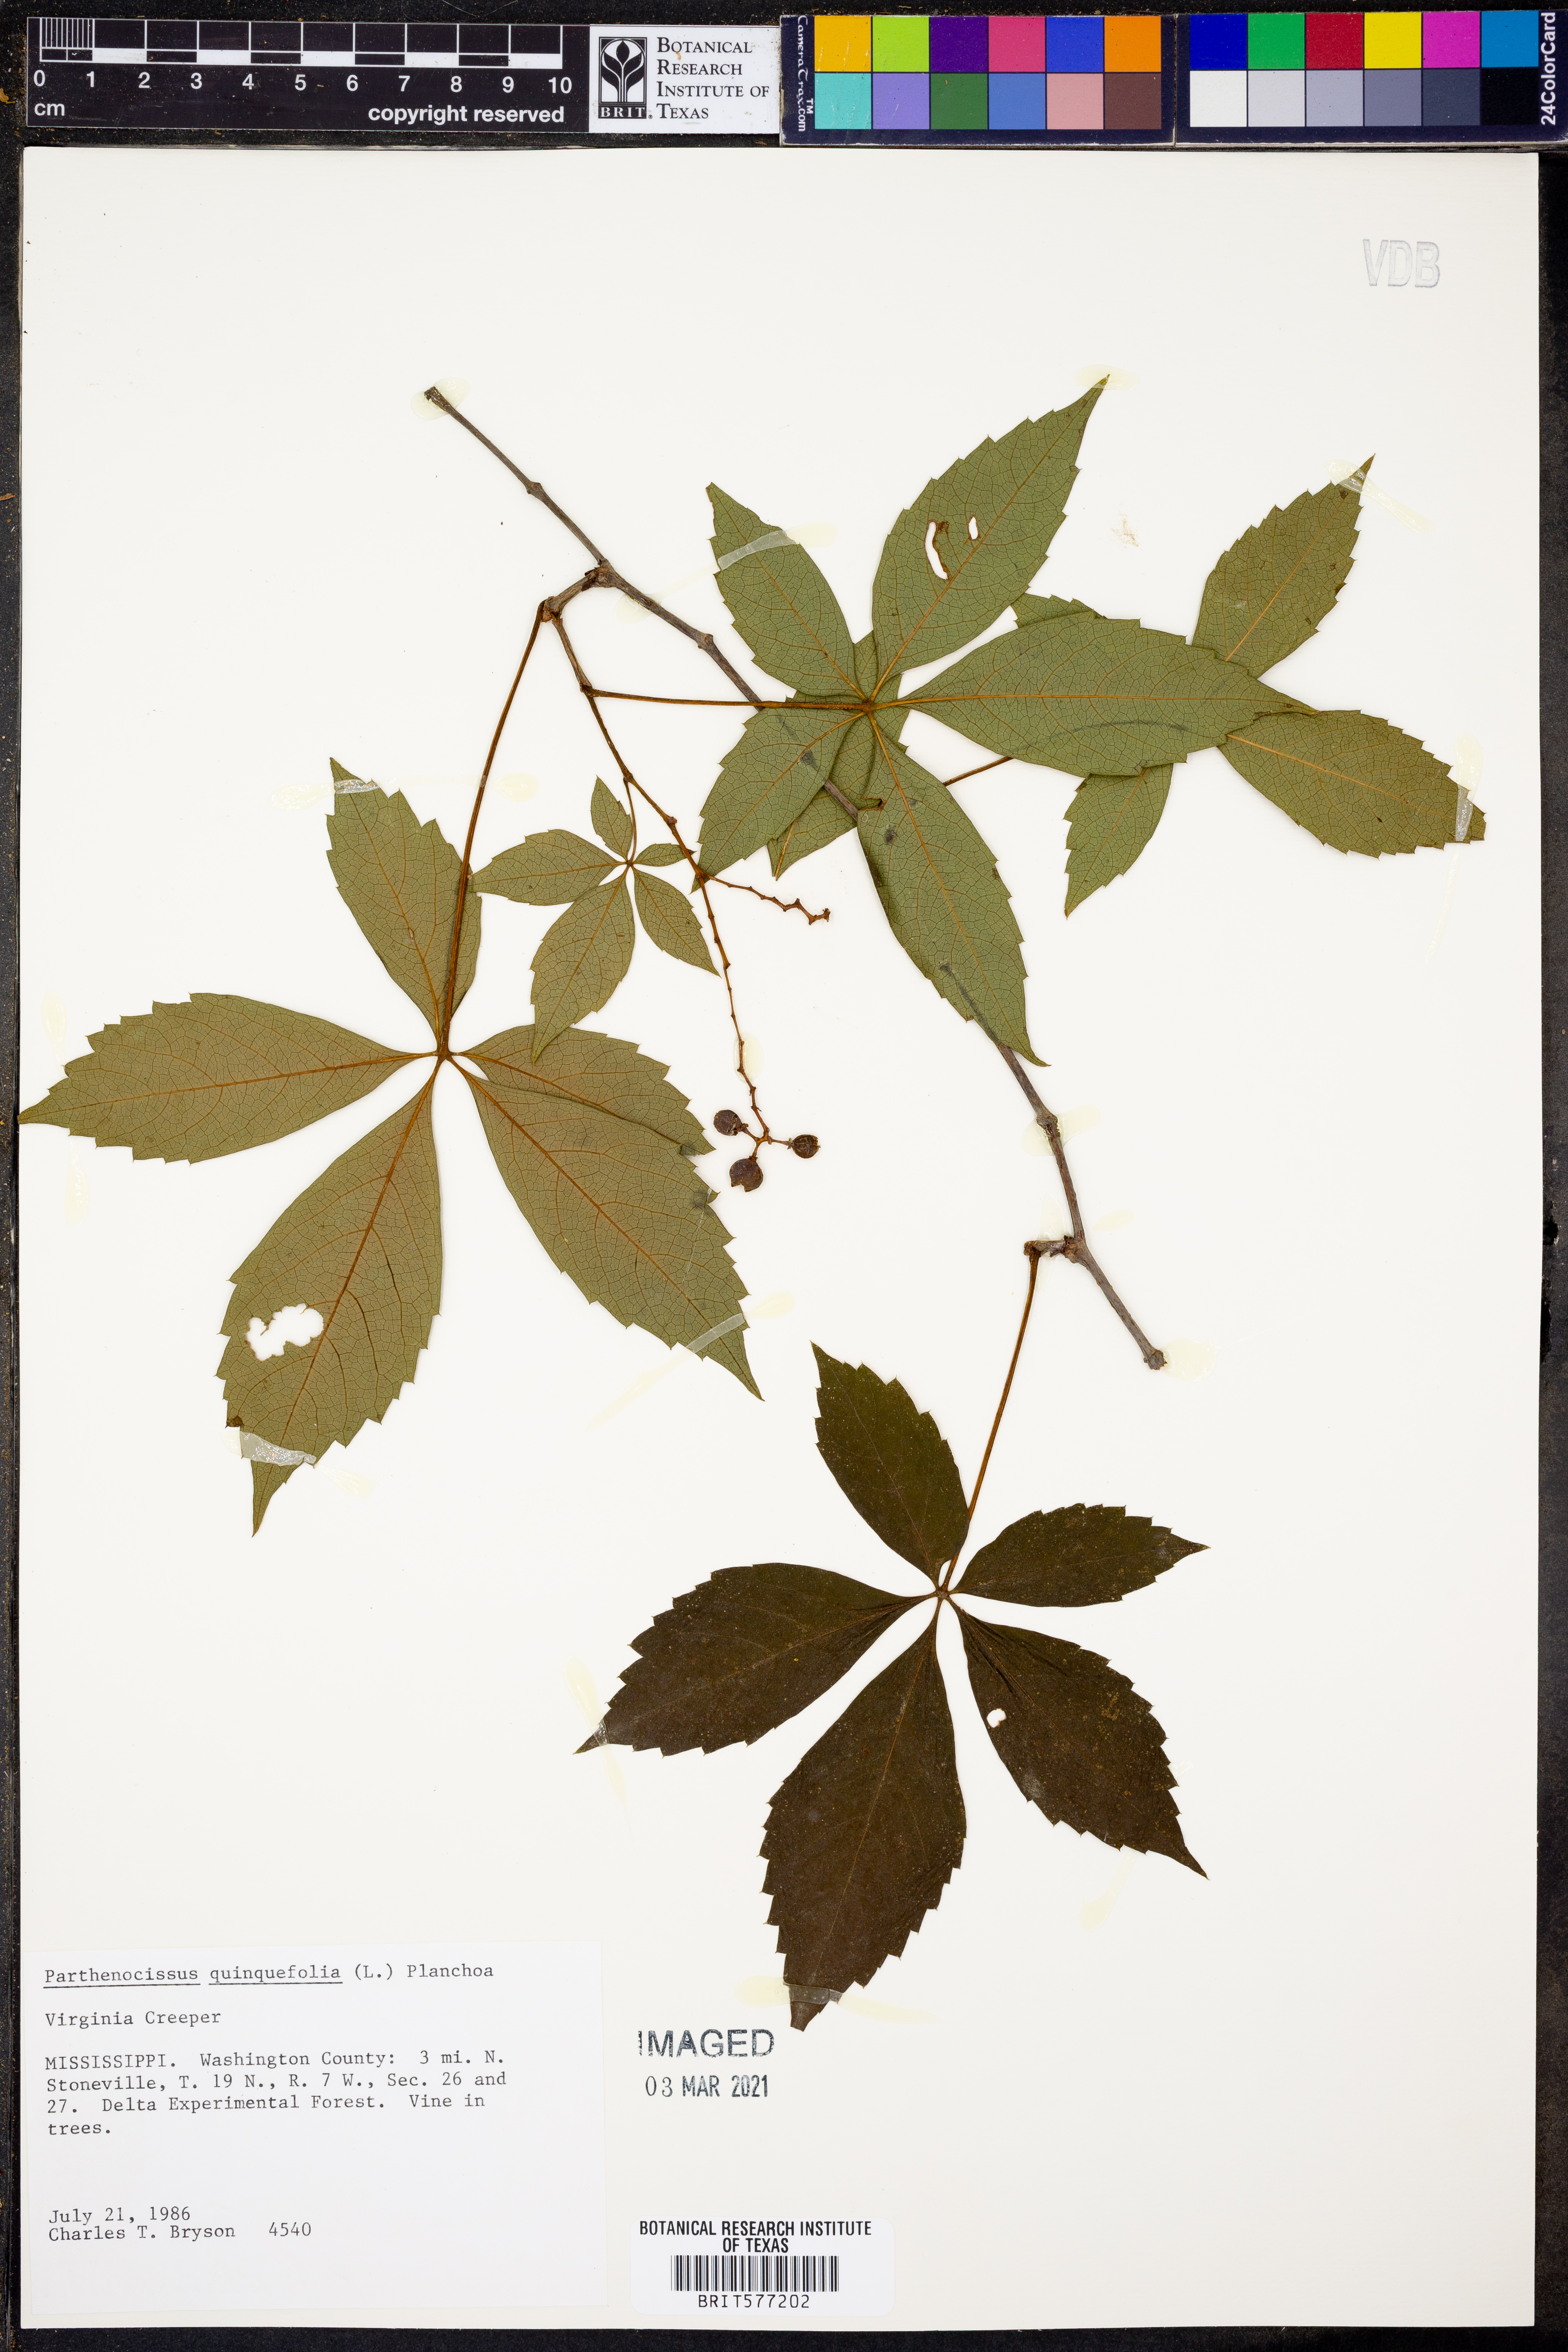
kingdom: Plantae
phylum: Tracheophyta
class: Magnoliopsida
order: Vitales
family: Vitaceae
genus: Parthenocissus
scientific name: Parthenocissus quinquefolia
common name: Virginia-creeper
